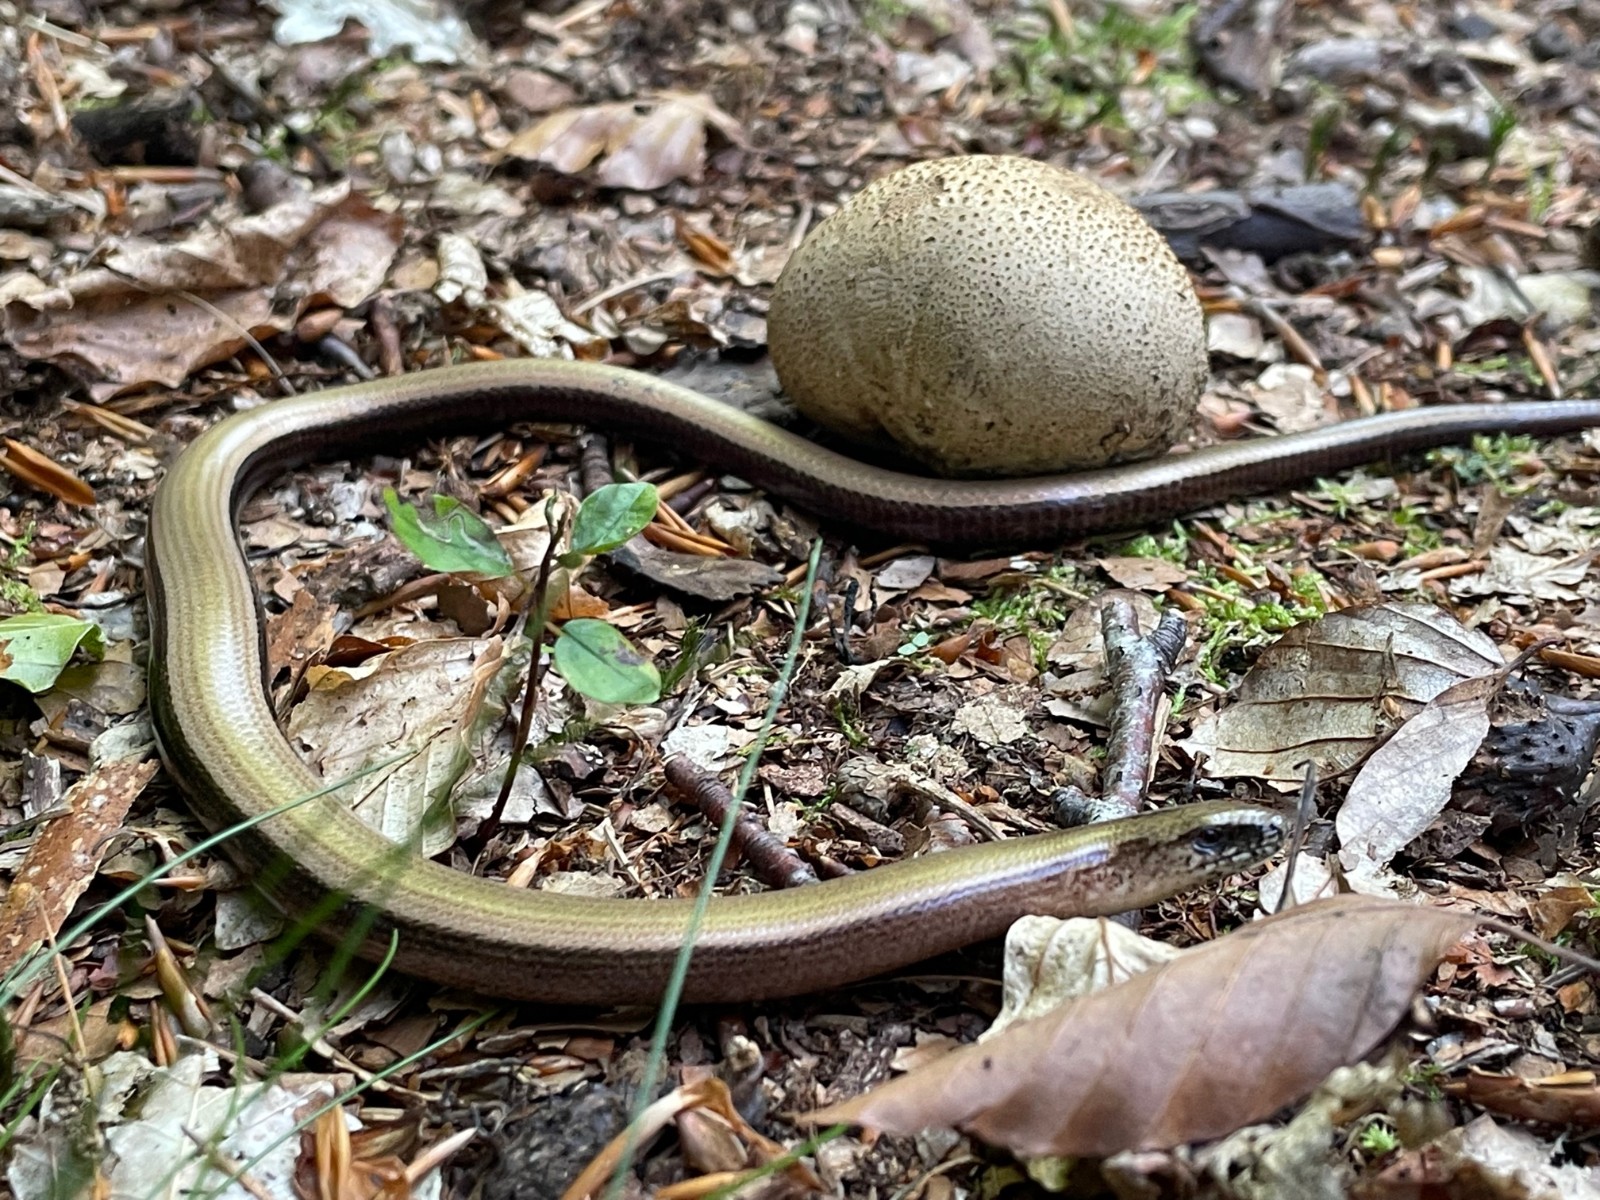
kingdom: Fungi
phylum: Basidiomycota
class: Agaricomycetes
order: Boletales
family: Sclerodermataceae
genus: Scleroderma
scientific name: Scleroderma citrinum
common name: almindelig bruskbold
